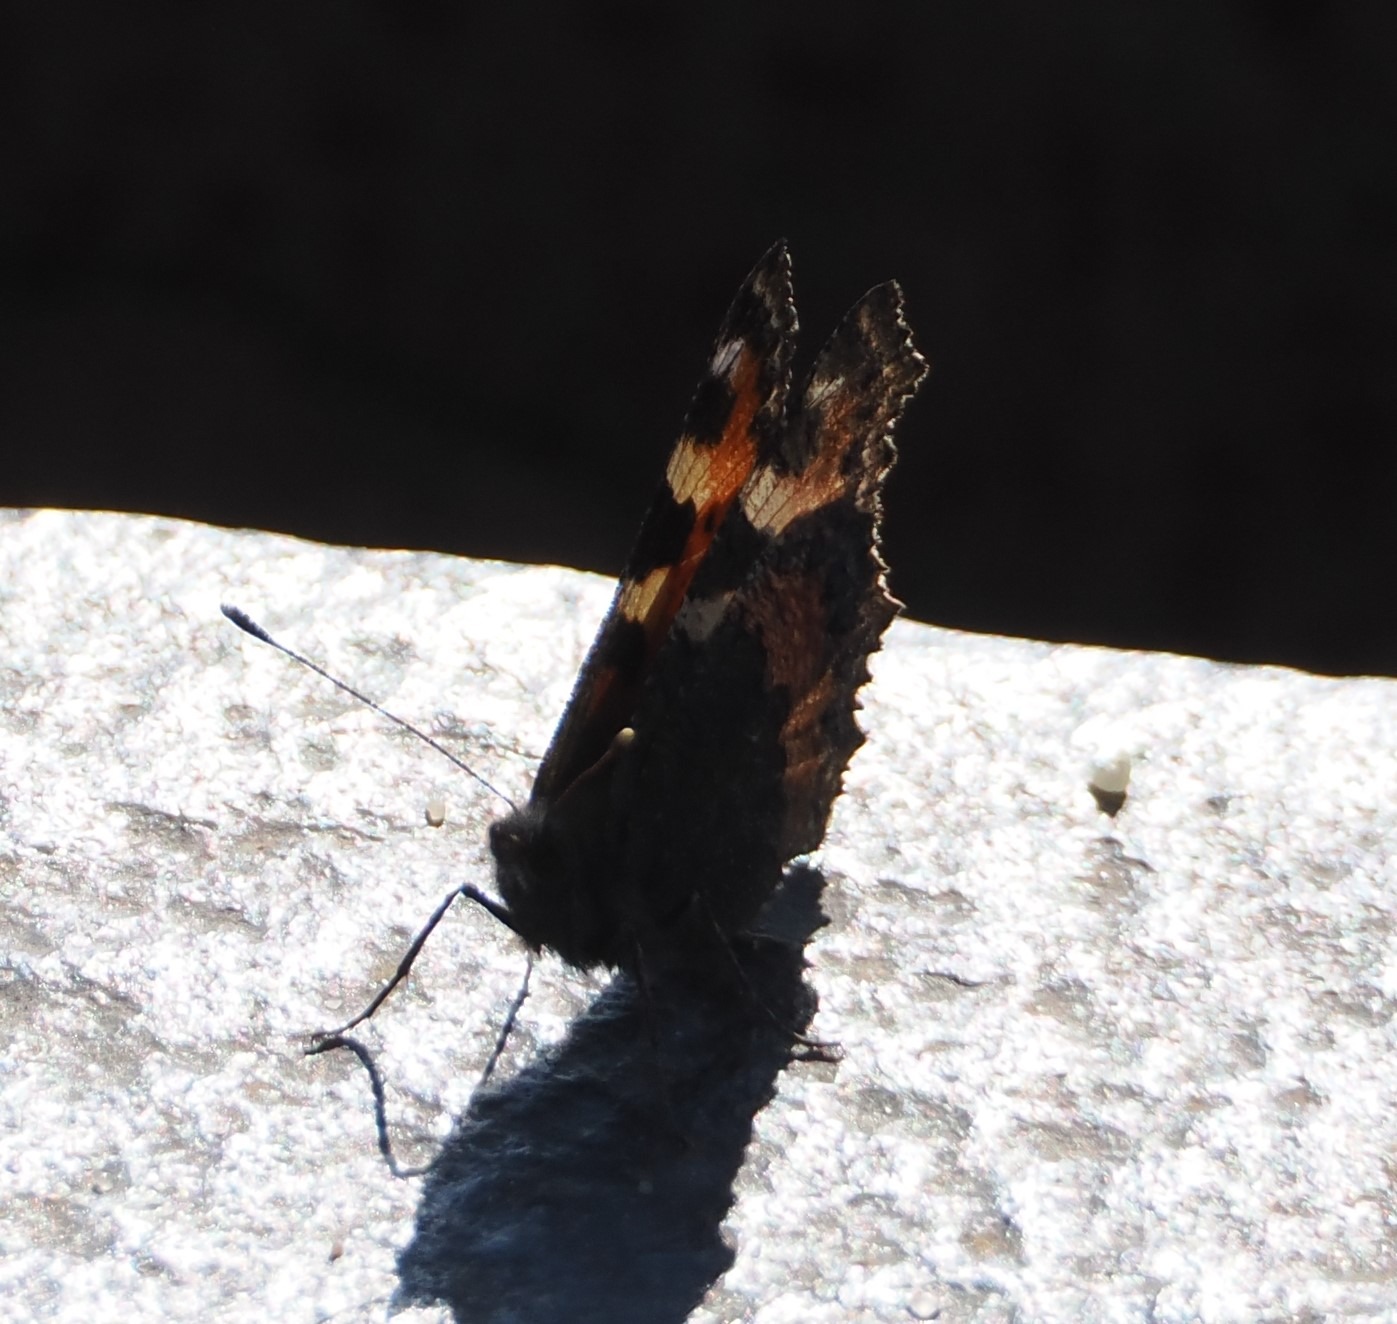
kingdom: Animalia
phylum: Arthropoda
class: Insecta
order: Lepidoptera
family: Nymphalidae
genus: Aglais
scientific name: Aglais urticae
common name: Nældens takvinge
